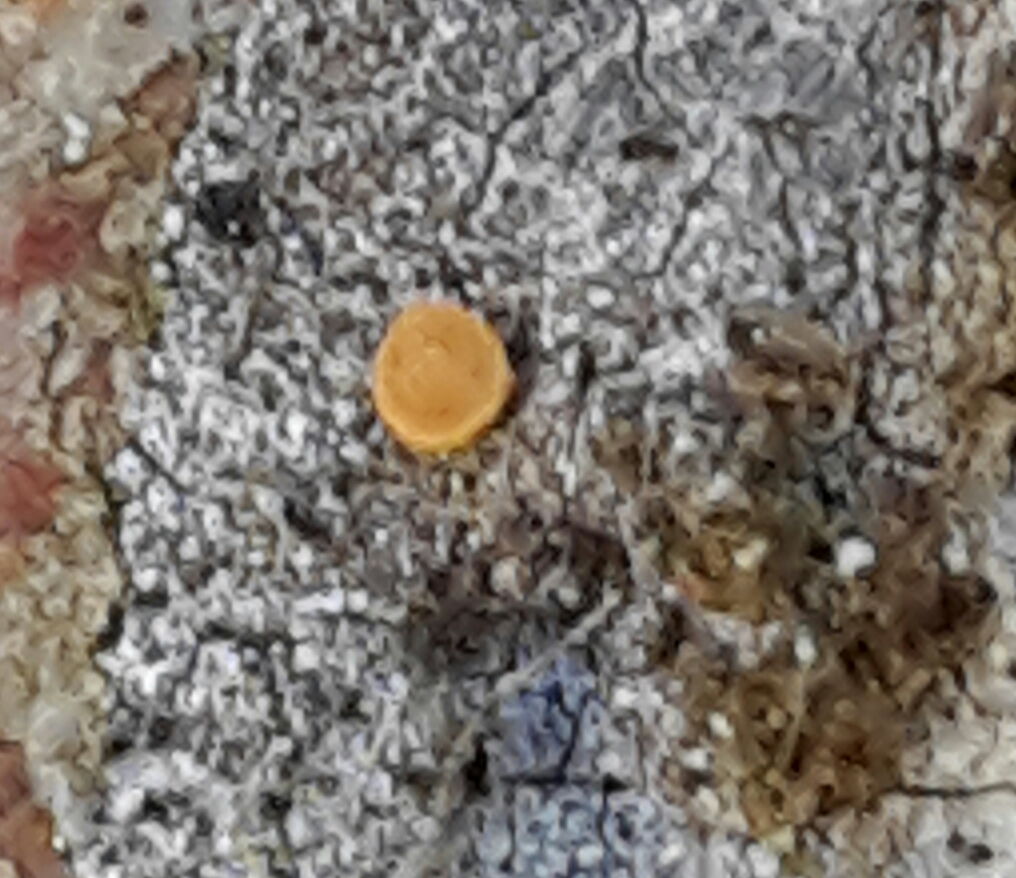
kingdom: Fungi
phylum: Ascomycota
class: Sareomycetes
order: Sareales
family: Sareaceae
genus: Sarea
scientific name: Sarea resinae
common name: orangegul harpiksskive
